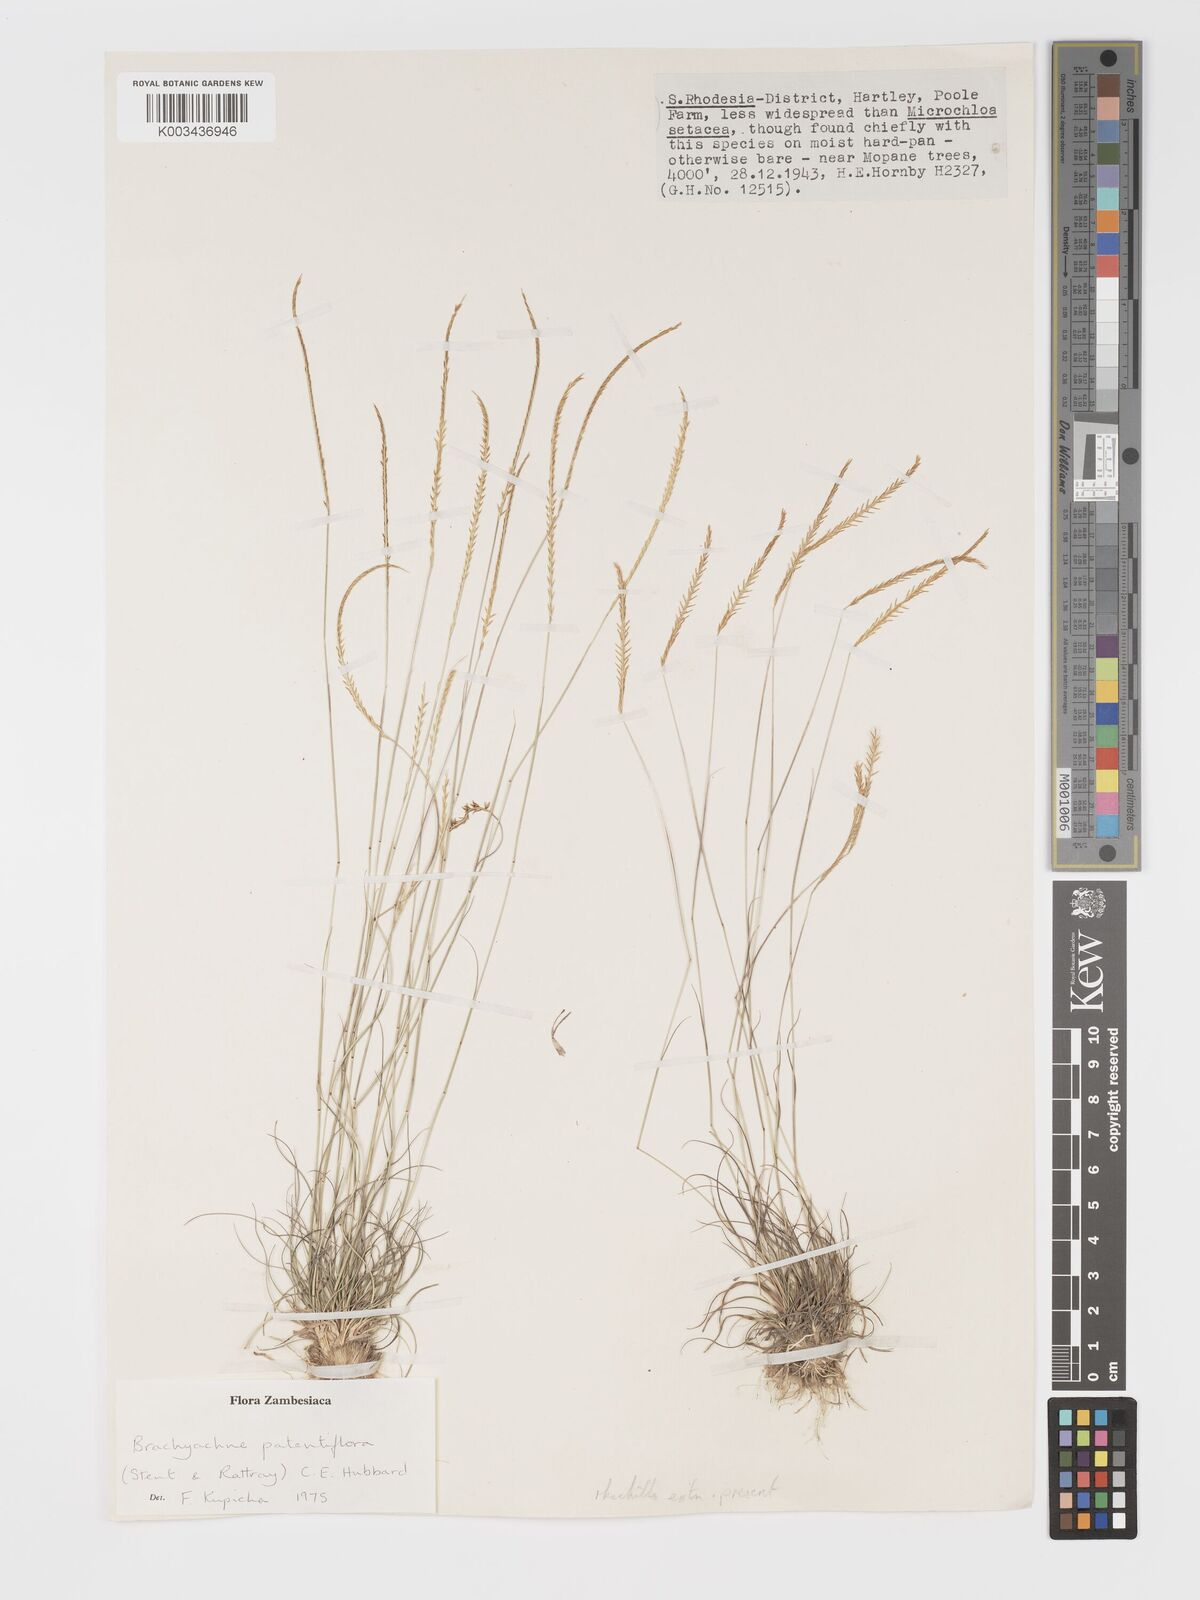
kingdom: Plantae
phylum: Tracheophyta
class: Liliopsida
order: Poales
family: Poaceae
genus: Micrachne
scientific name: Micrachne patentiflora
